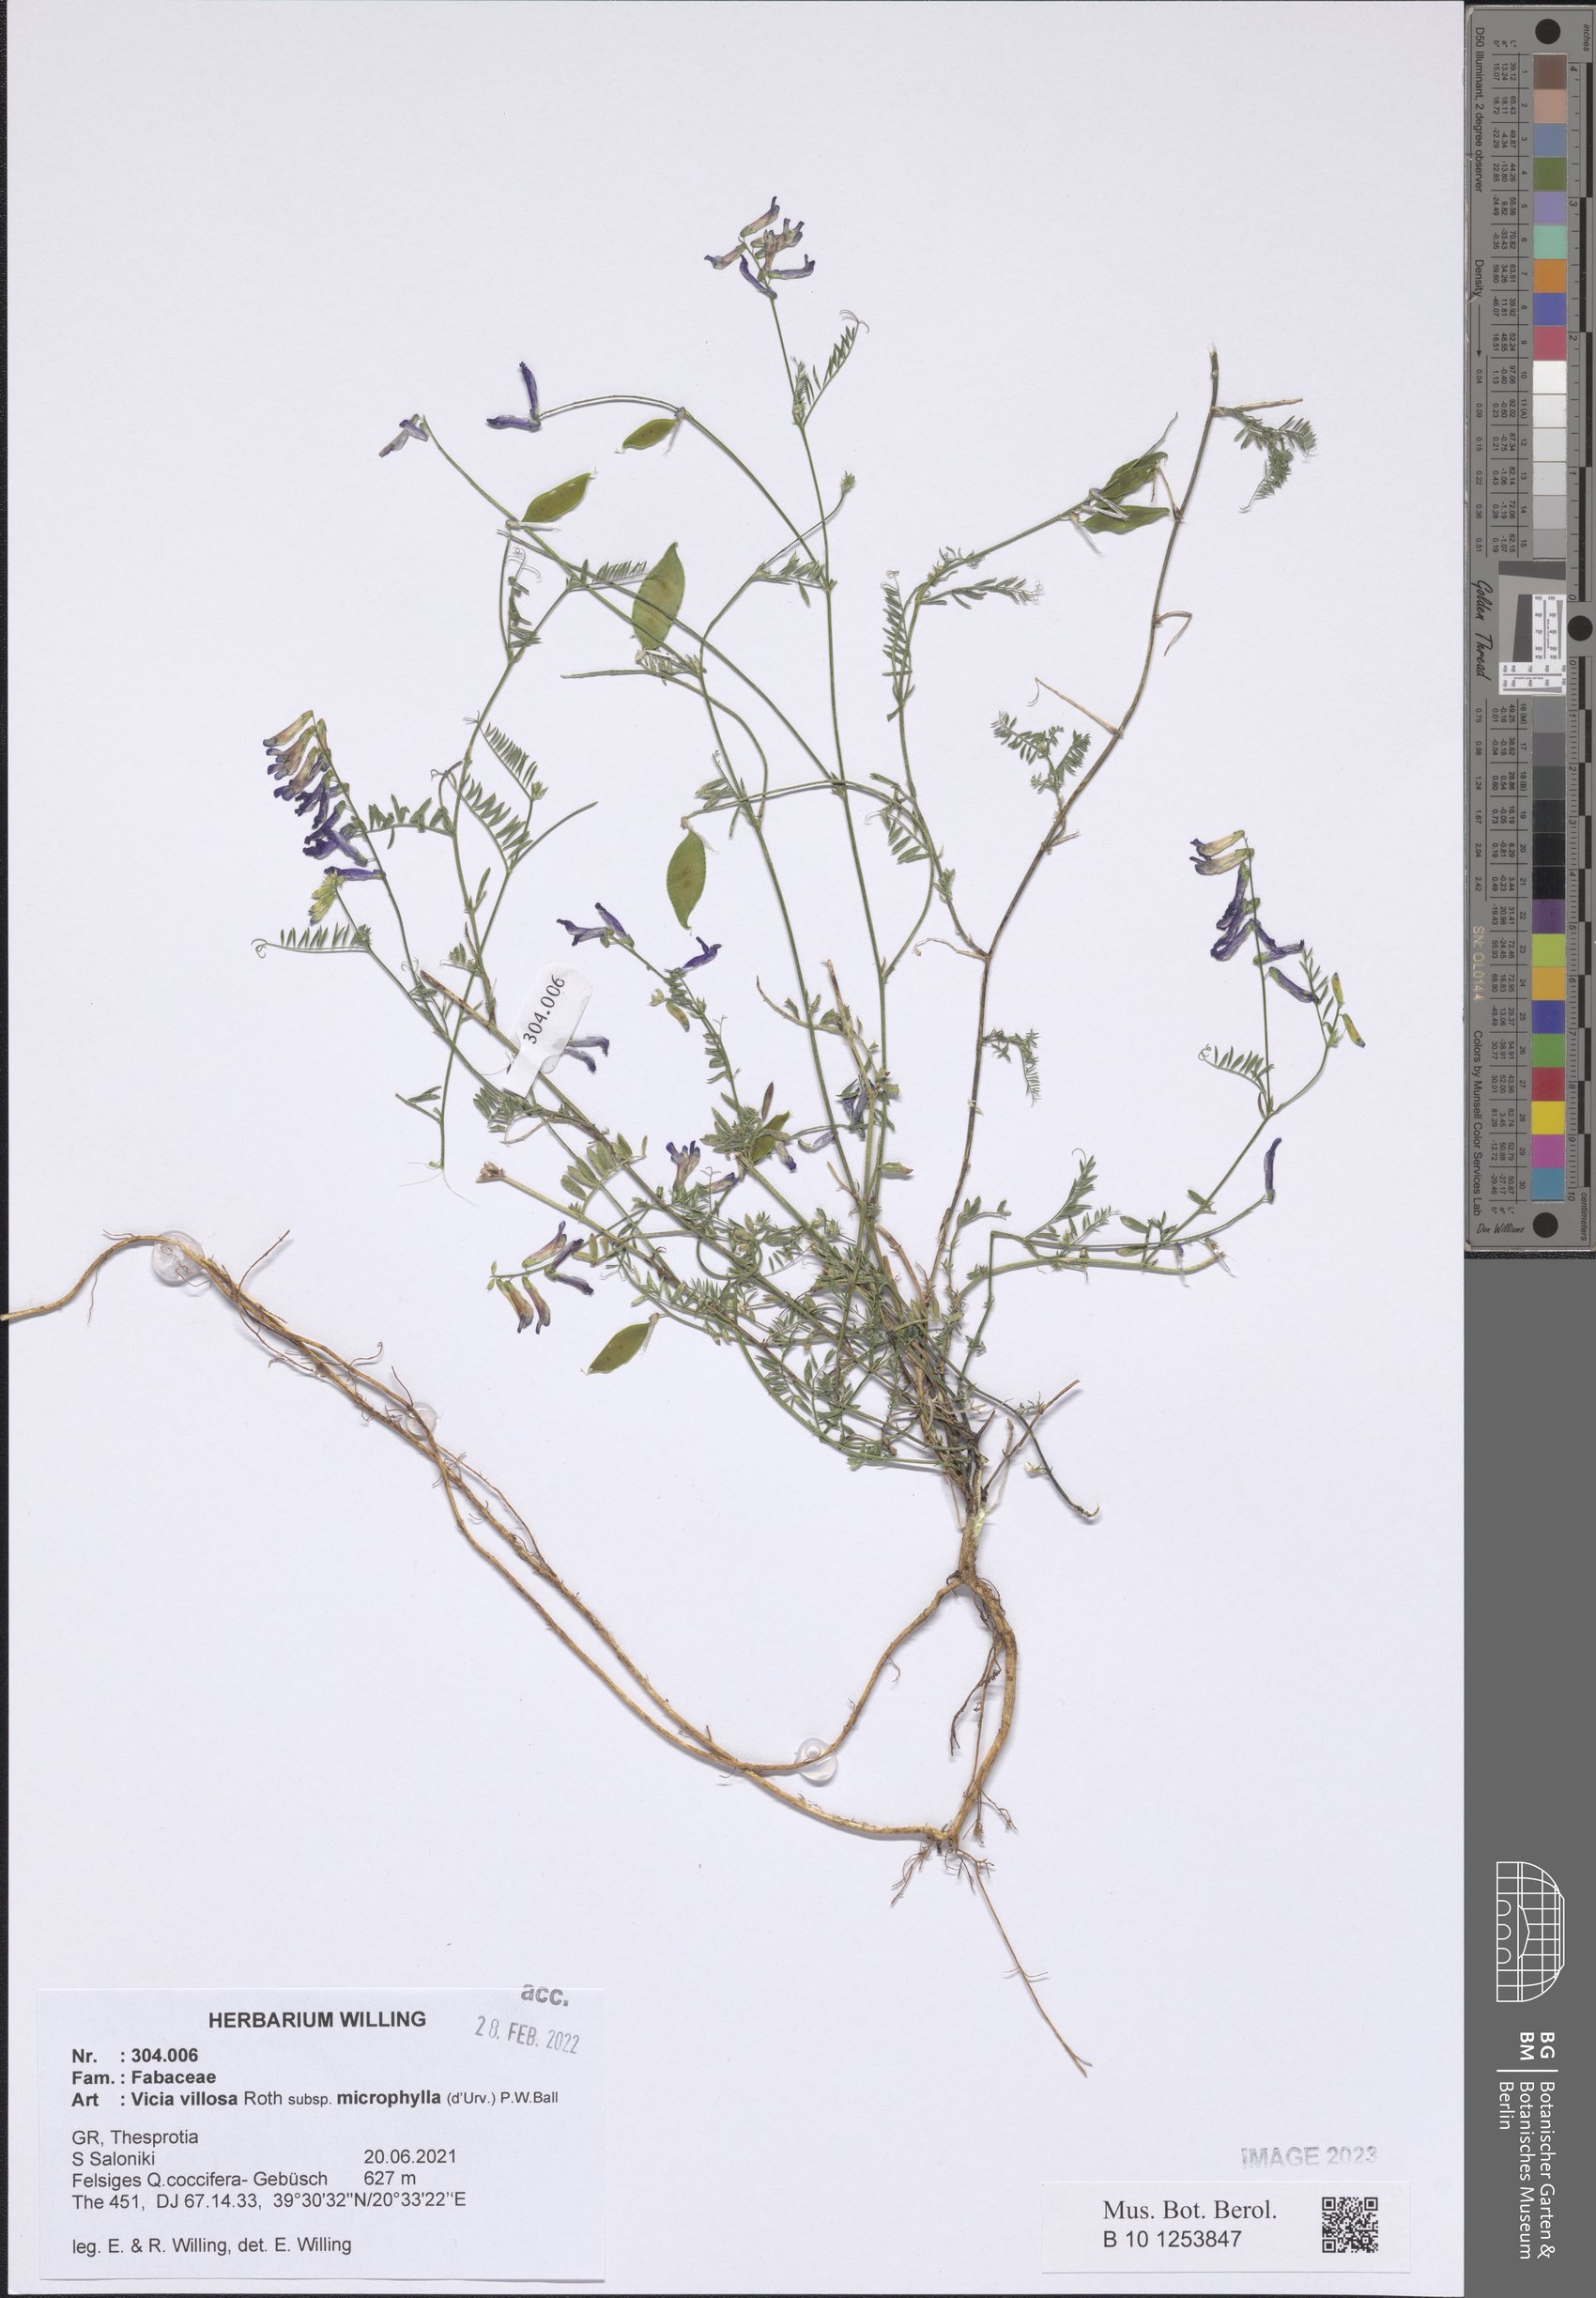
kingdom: Plantae
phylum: Tracheophyta
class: Magnoliopsida
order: Fabales
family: Fabaceae
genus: Vicia
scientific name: Vicia villosa
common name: Fodder vetch
